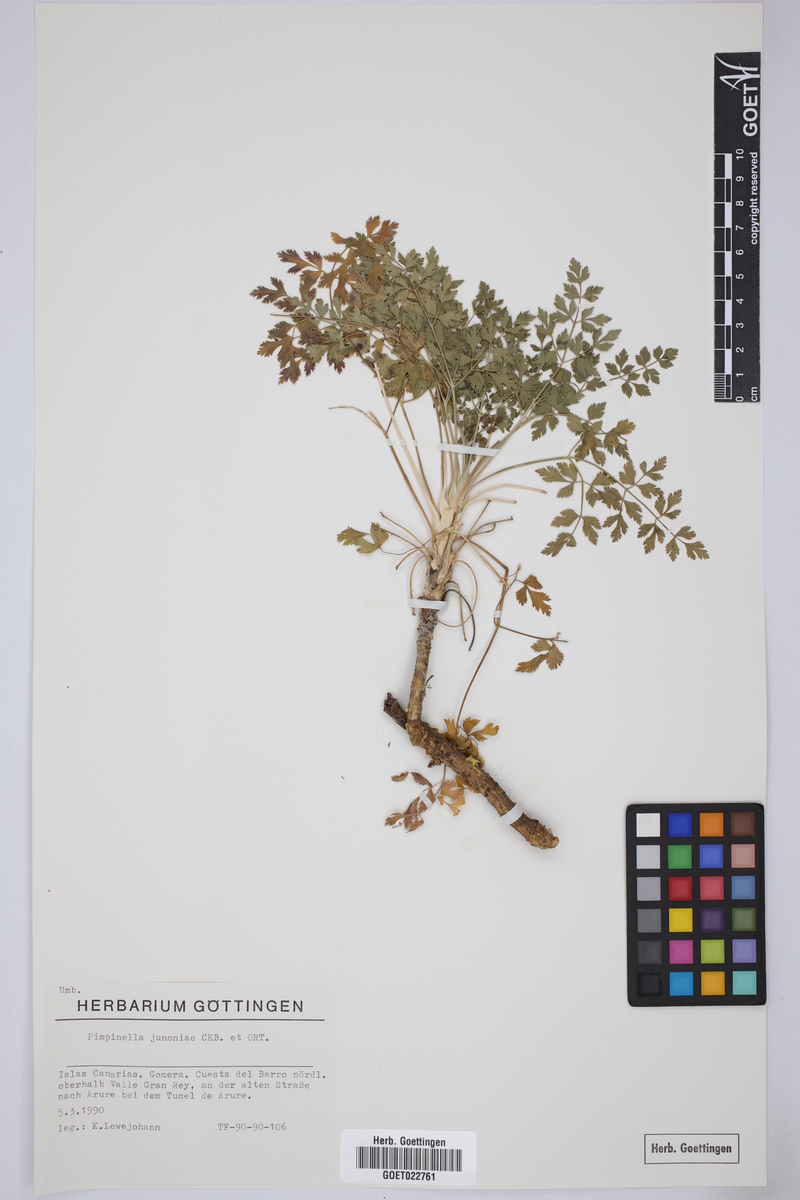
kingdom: Plantae
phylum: Tracheophyta
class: Magnoliopsida
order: Apiales
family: Apiaceae
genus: Pimpinella
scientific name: Pimpinella junionae
